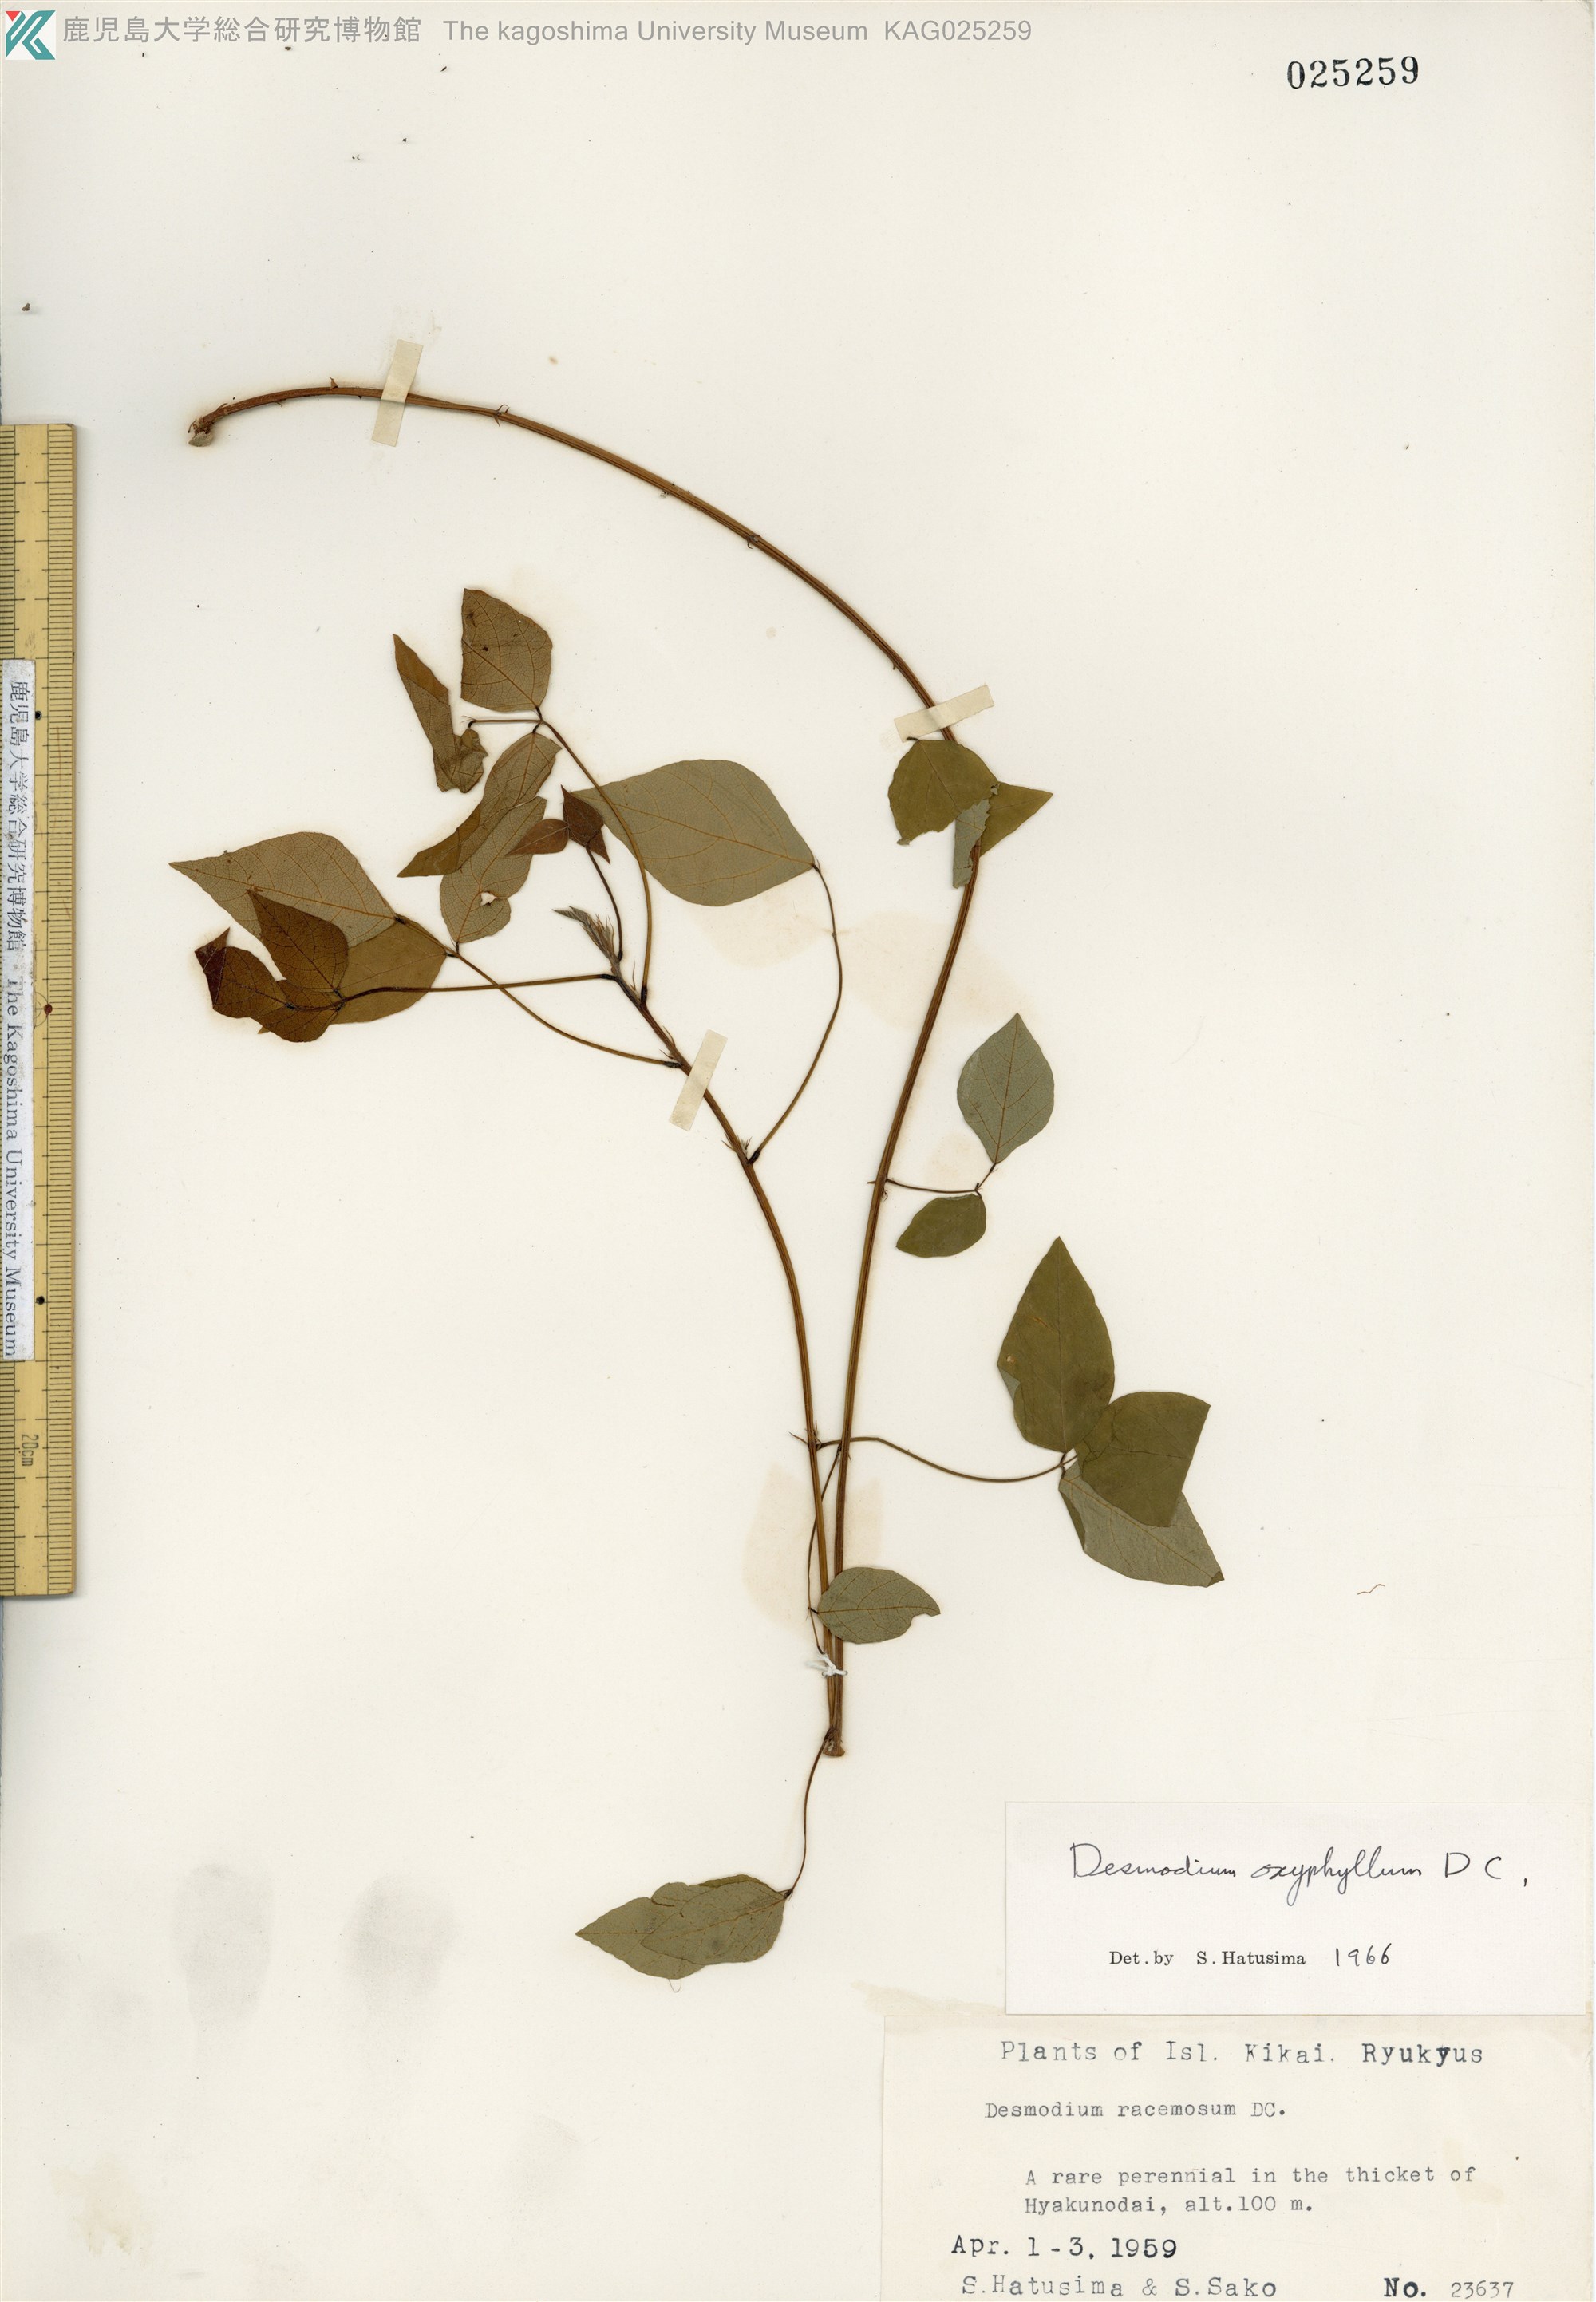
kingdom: Plantae
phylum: Tracheophyta
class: Magnoliopsida
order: Fabales
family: Fabaceae
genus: Hylodesmum
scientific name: Hylodesmum podocarpum
